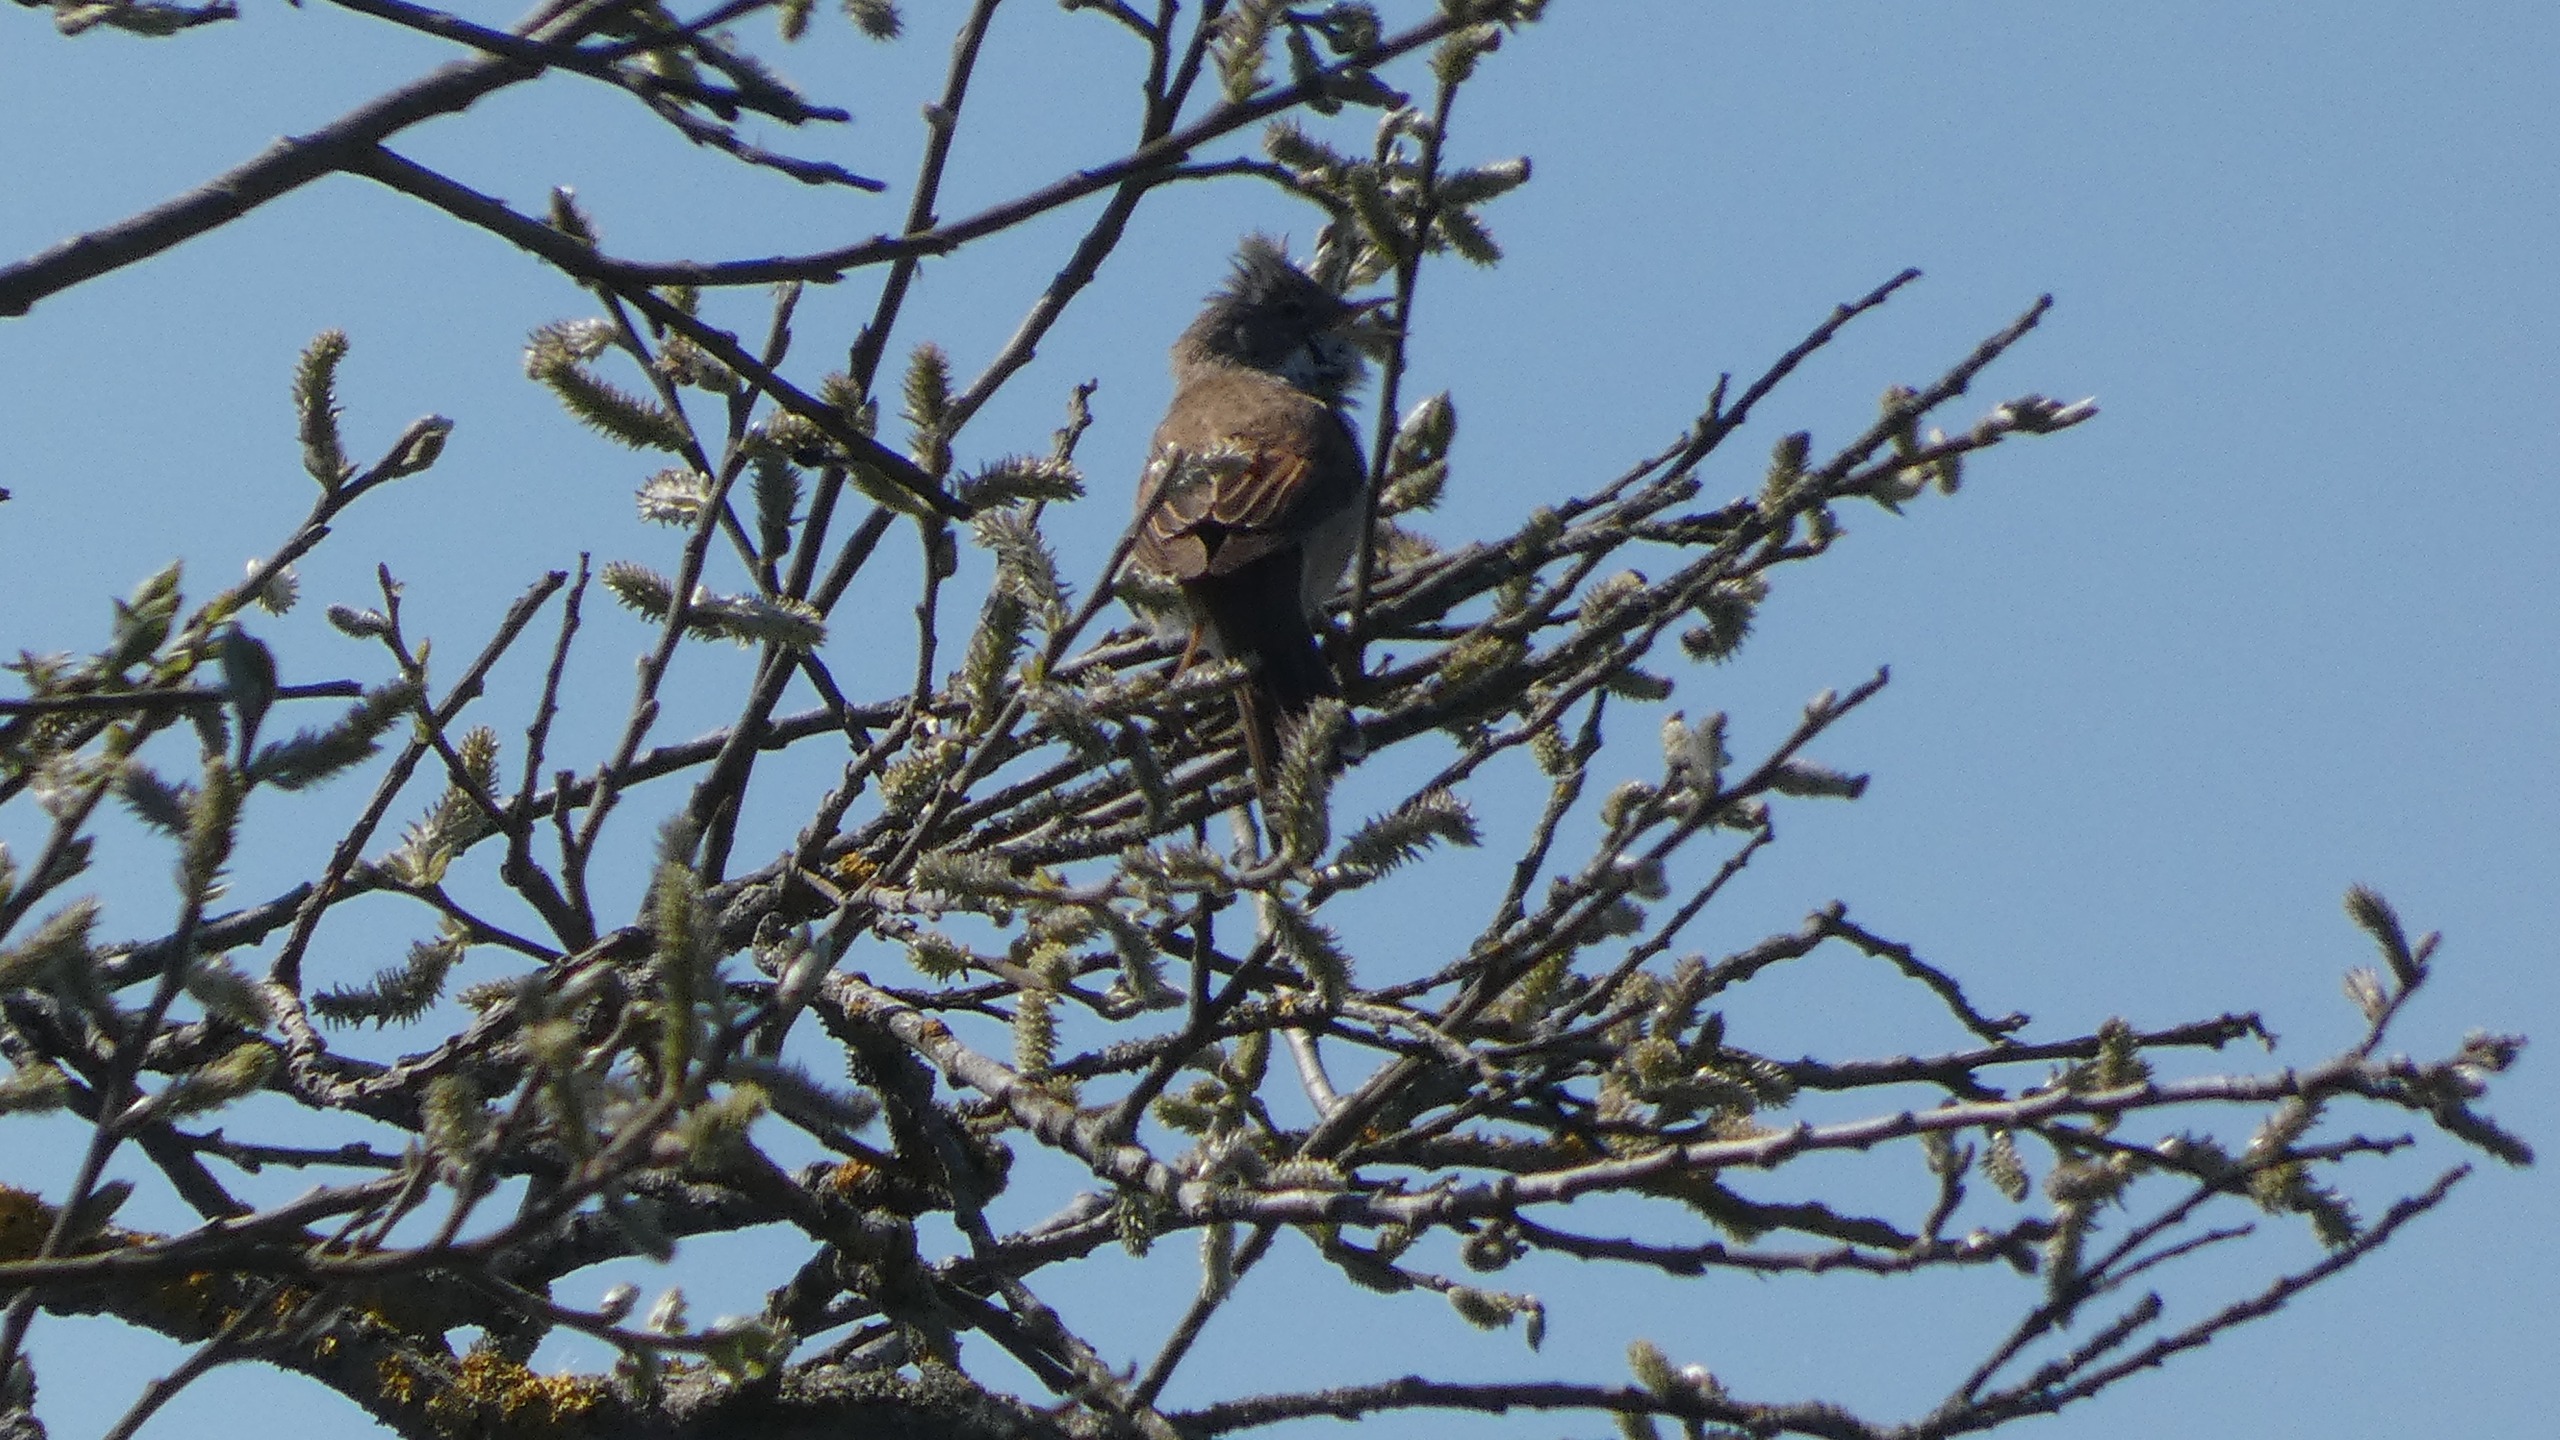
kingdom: Animalia
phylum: Chordata
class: Aves
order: Passeriformes
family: Sylviidae
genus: Sylvia
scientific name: Sylvia communis
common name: Tornsanger
